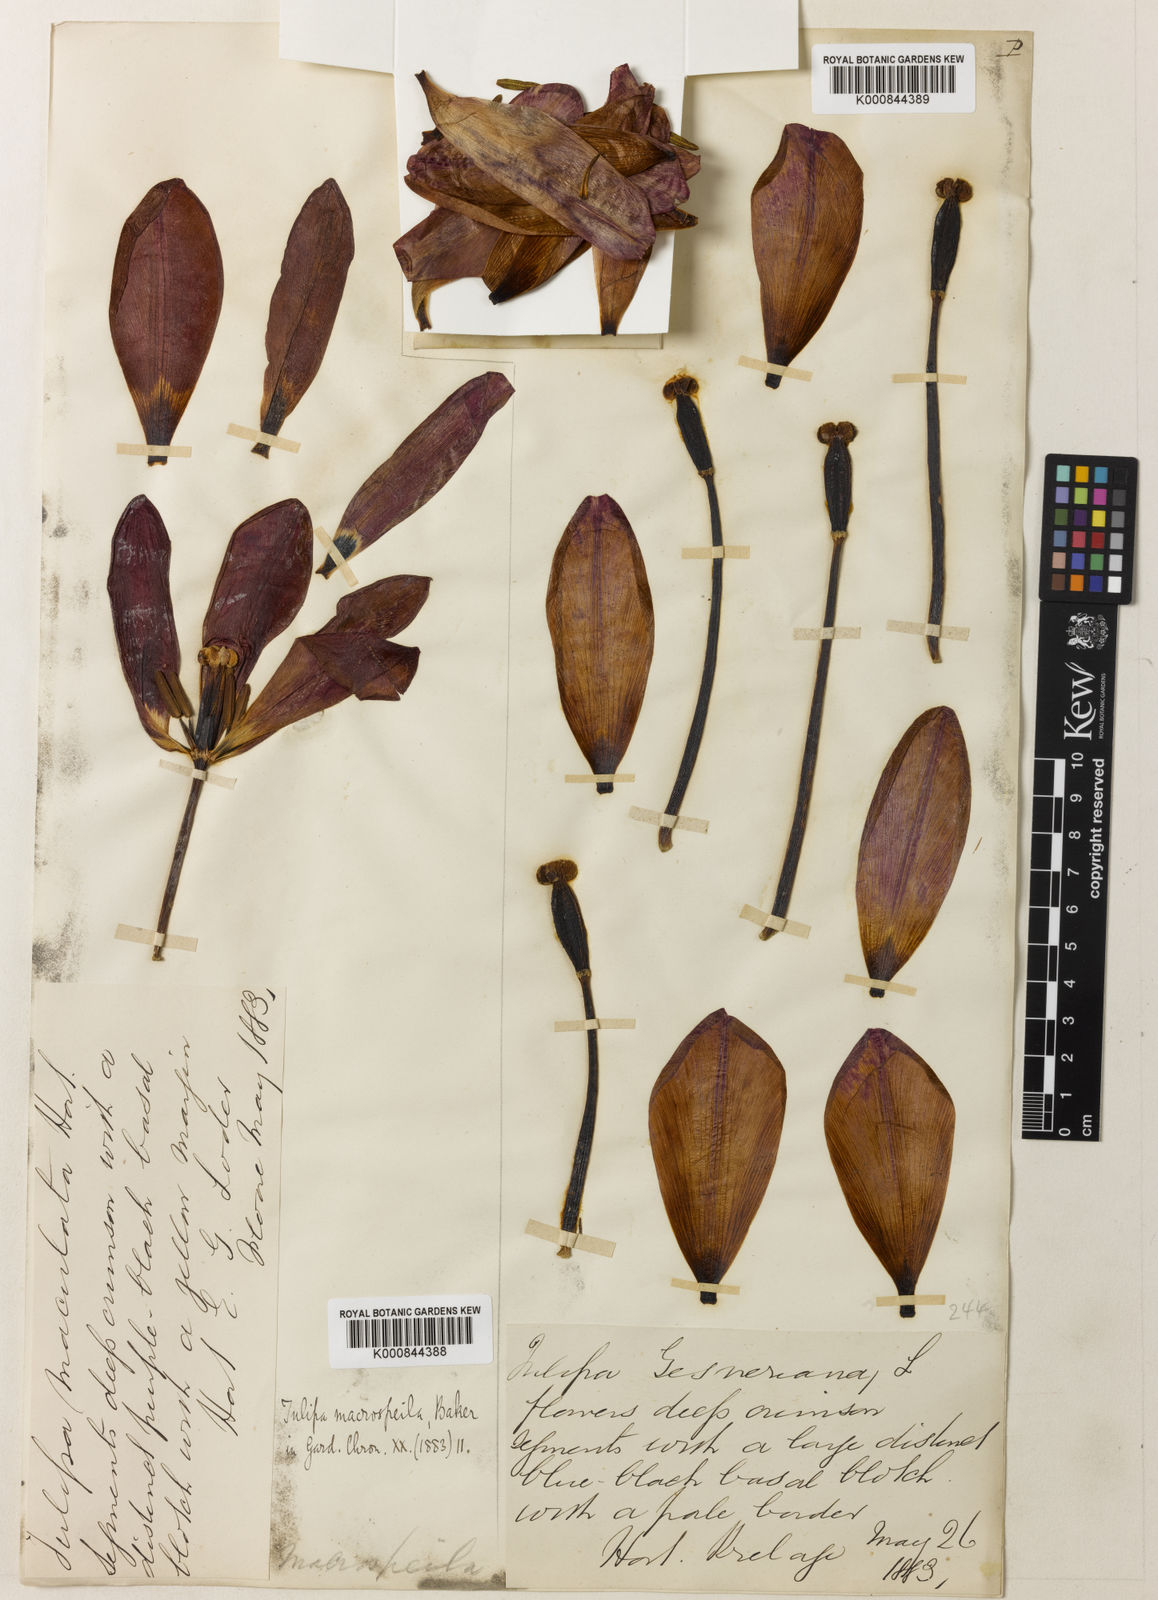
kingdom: Plantae
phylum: Tracheophyta
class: Liliopsida
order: Liliales
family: Liliaceae
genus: Tulipa
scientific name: Tulipa gesneriana
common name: Garden tulip
